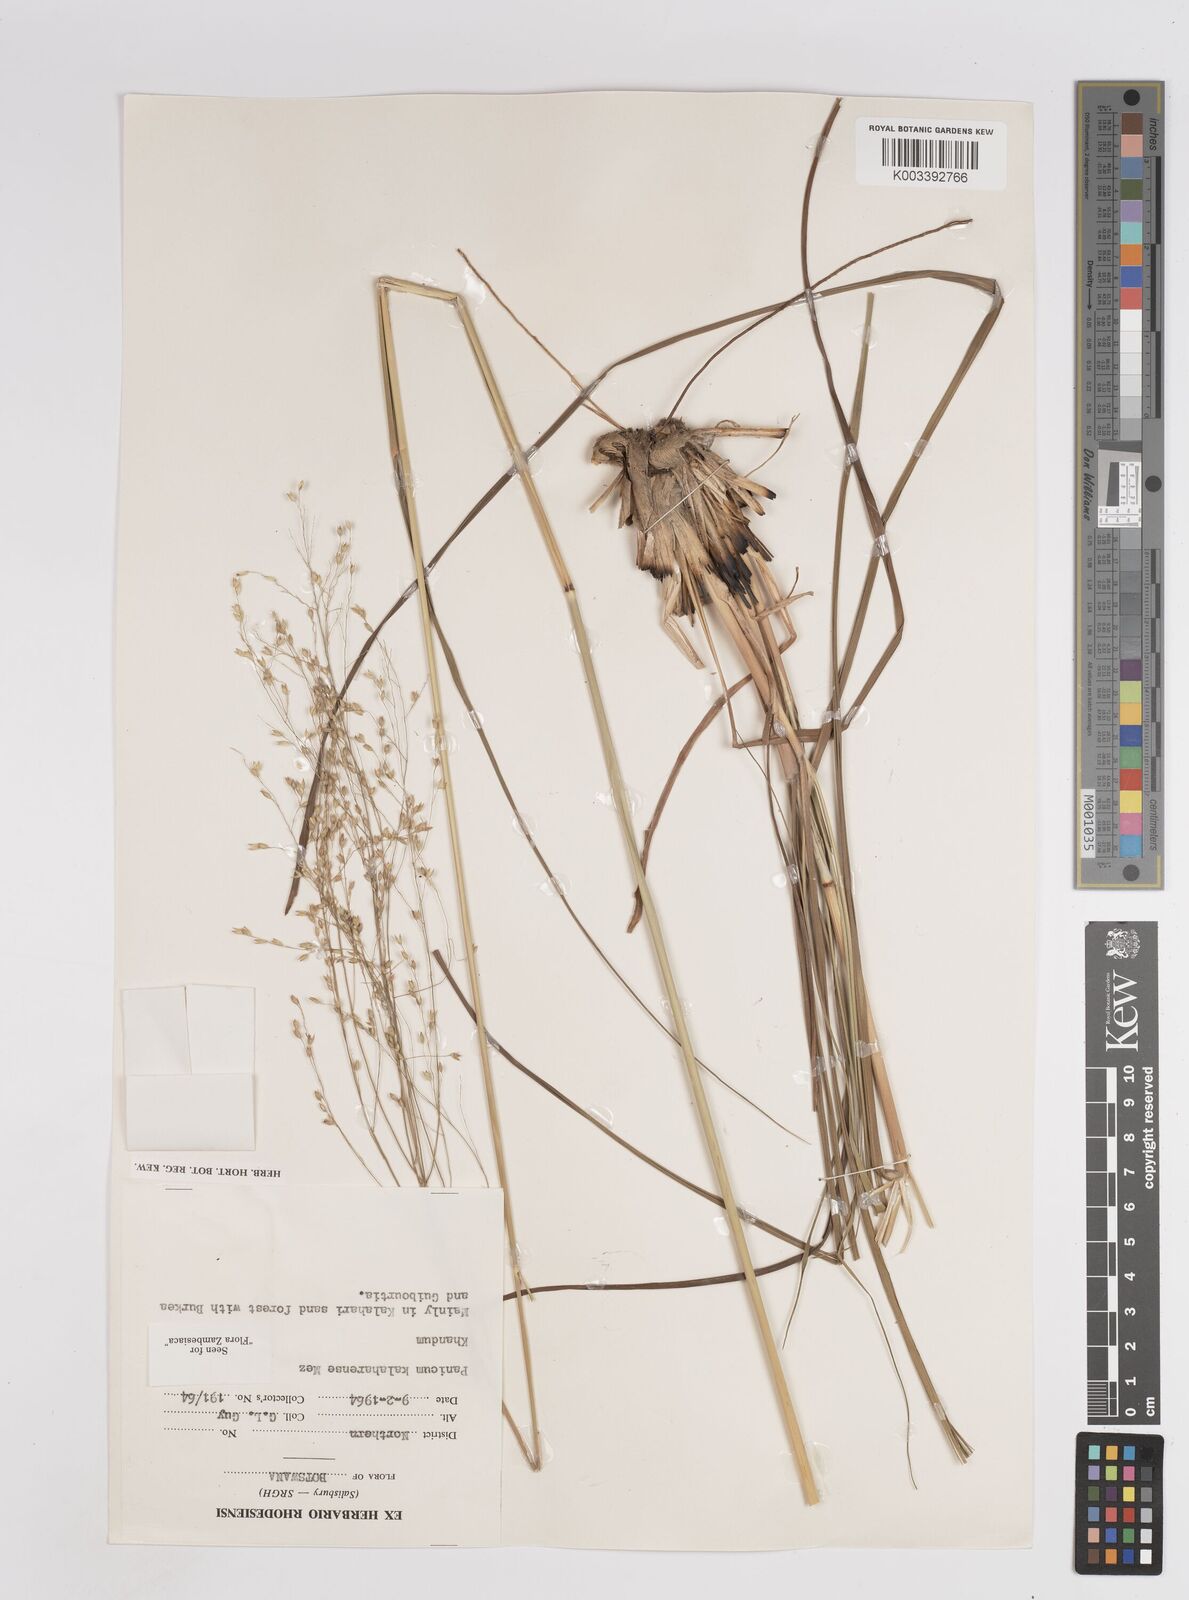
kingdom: Plantae
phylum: Tracheophyta
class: Liliopsida
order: Poales
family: Poaceae
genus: Panicum
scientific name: Panicum kalaharense
